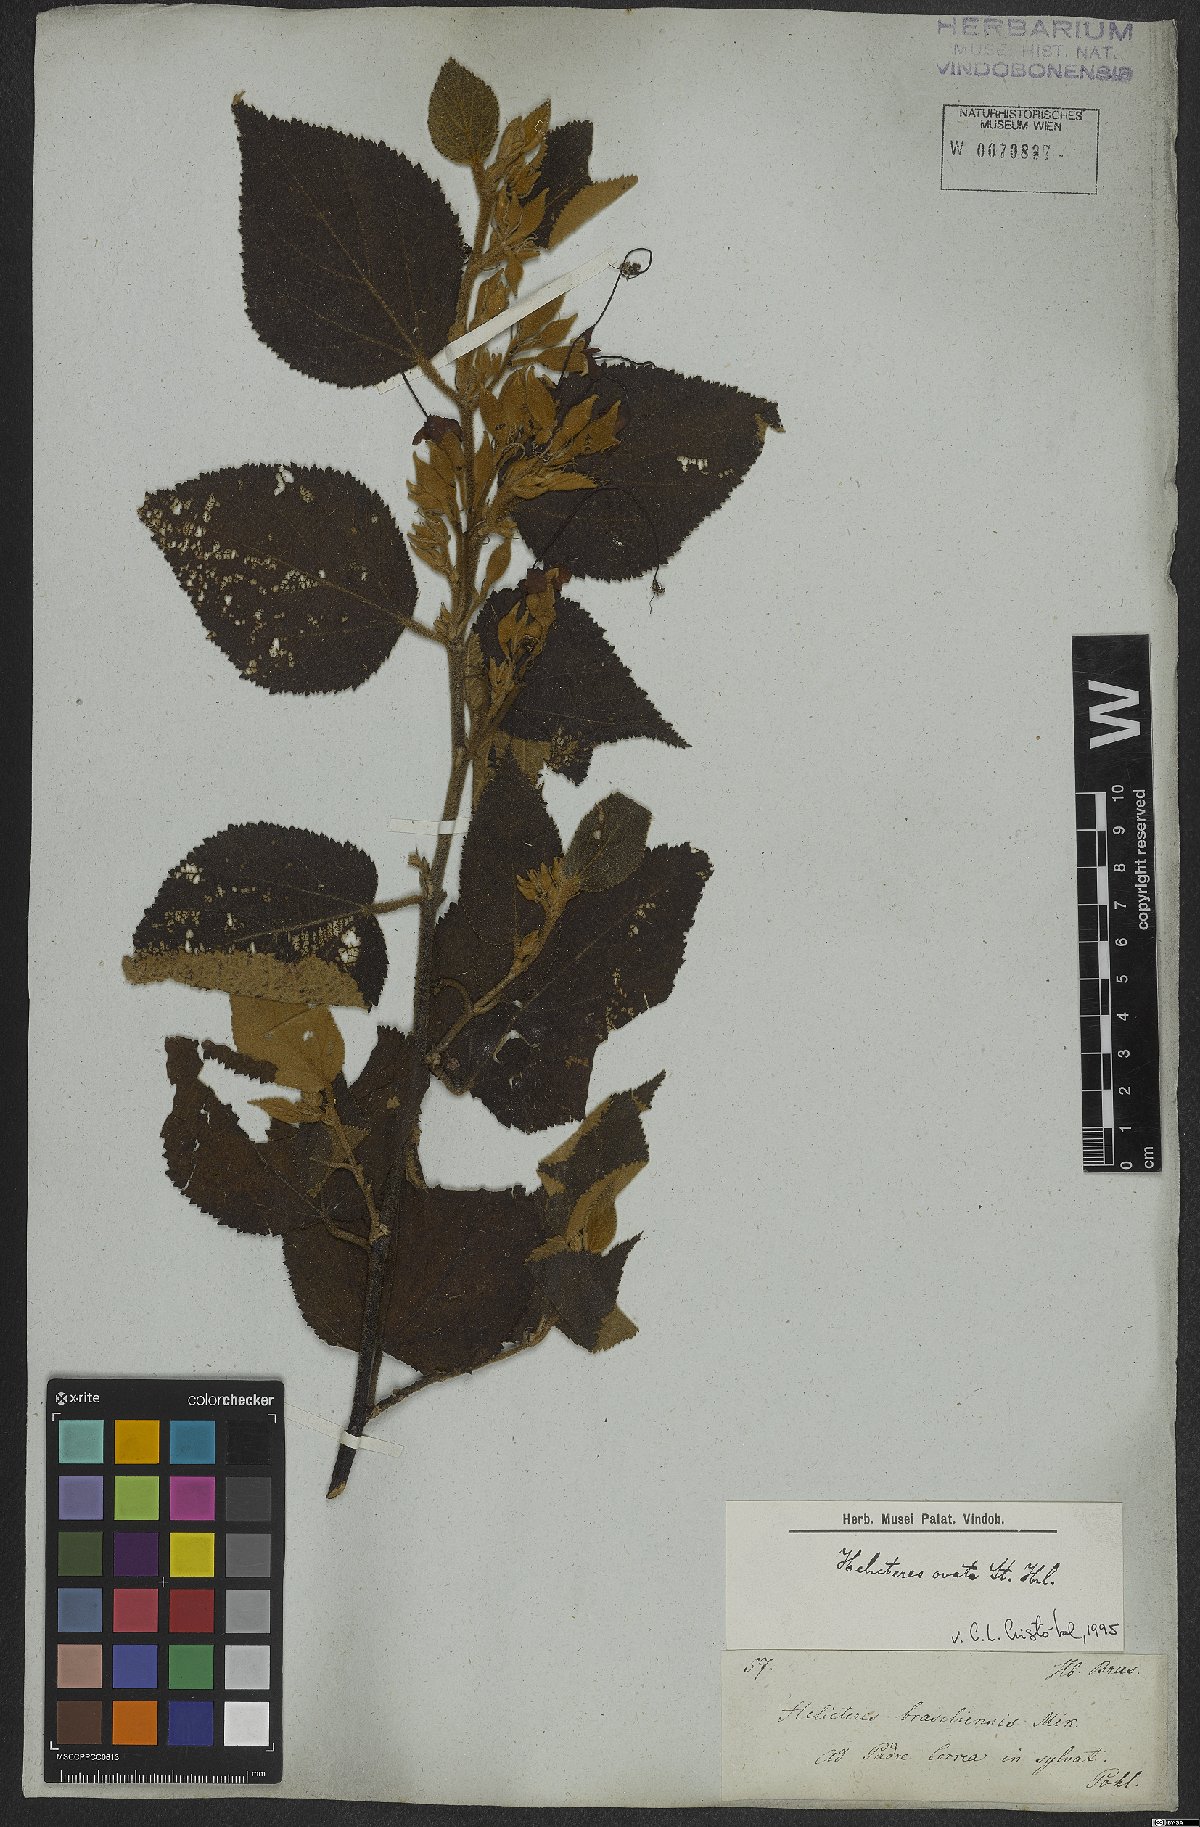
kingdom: Plantae
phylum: Tracheophyta
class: Magnoliopsida
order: Malvales
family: Malvaceae
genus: Helicteres
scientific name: Helicteres ovata
